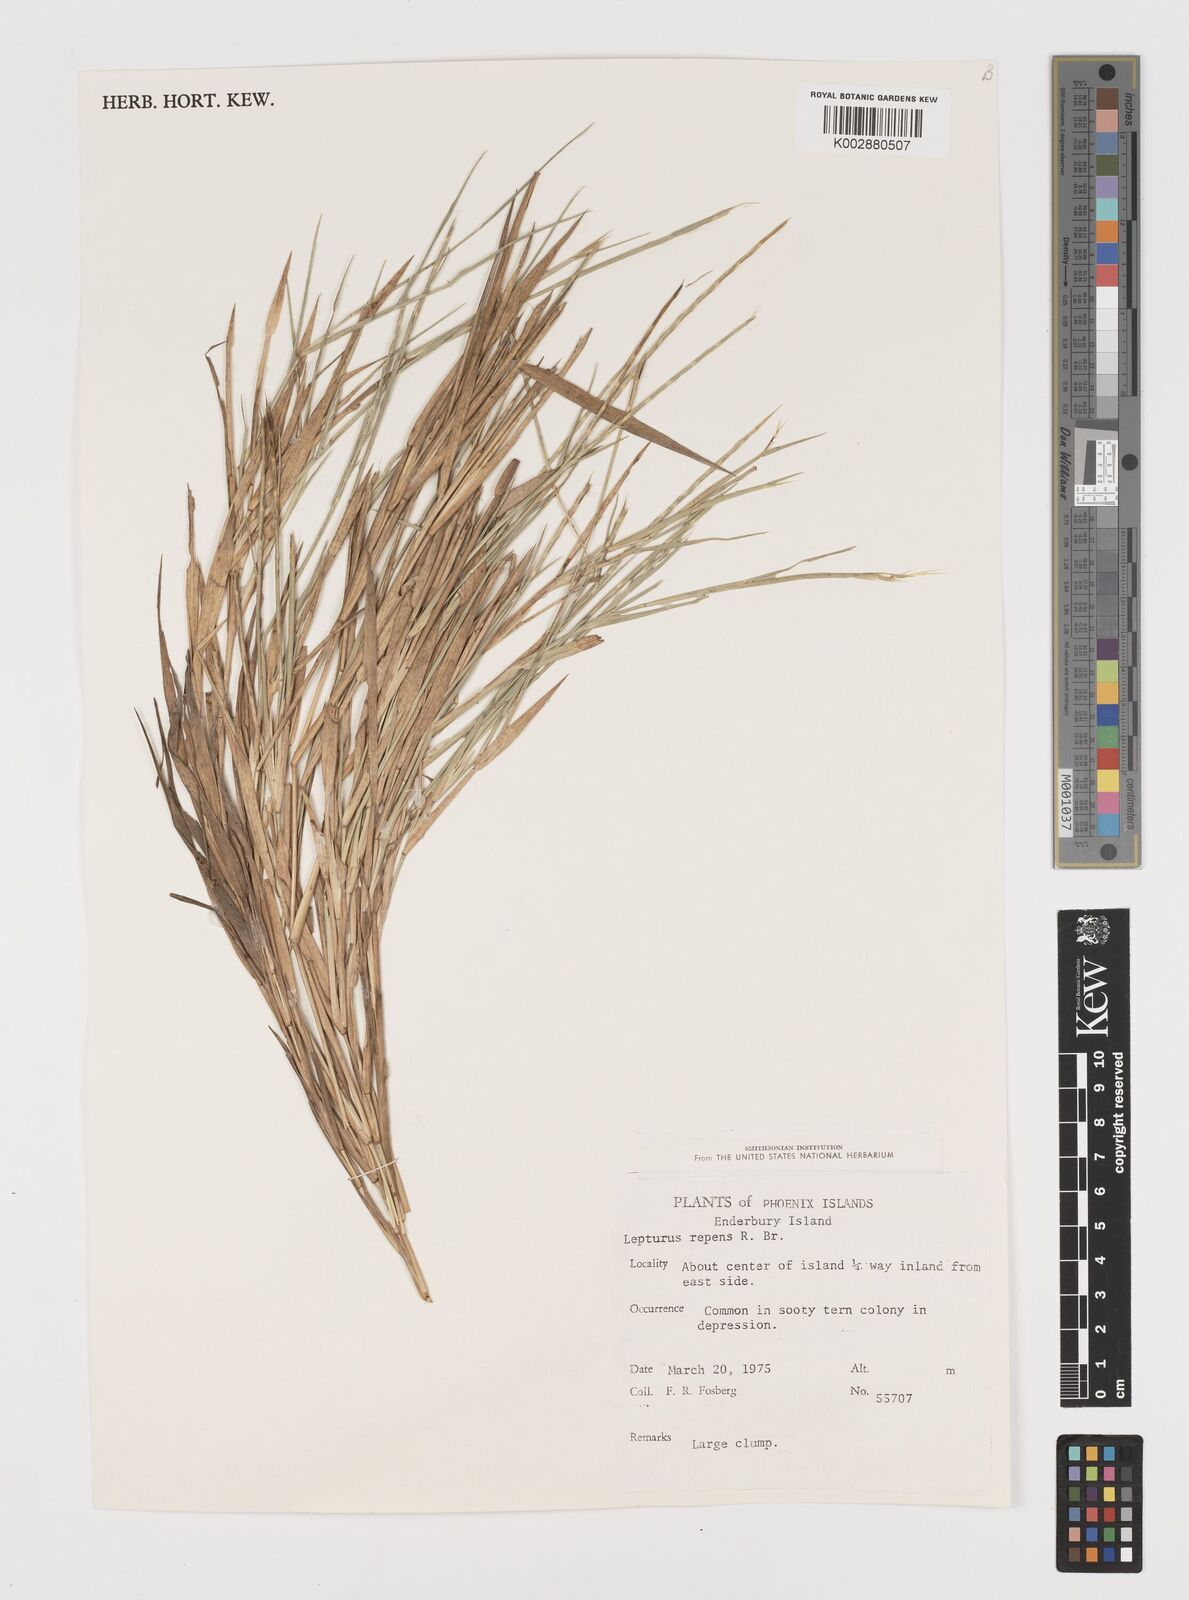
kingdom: Plantae
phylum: Tracheophyta
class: Liliopsida
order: Poales
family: Poaceae
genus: Lepturus
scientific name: Lepturus repens
